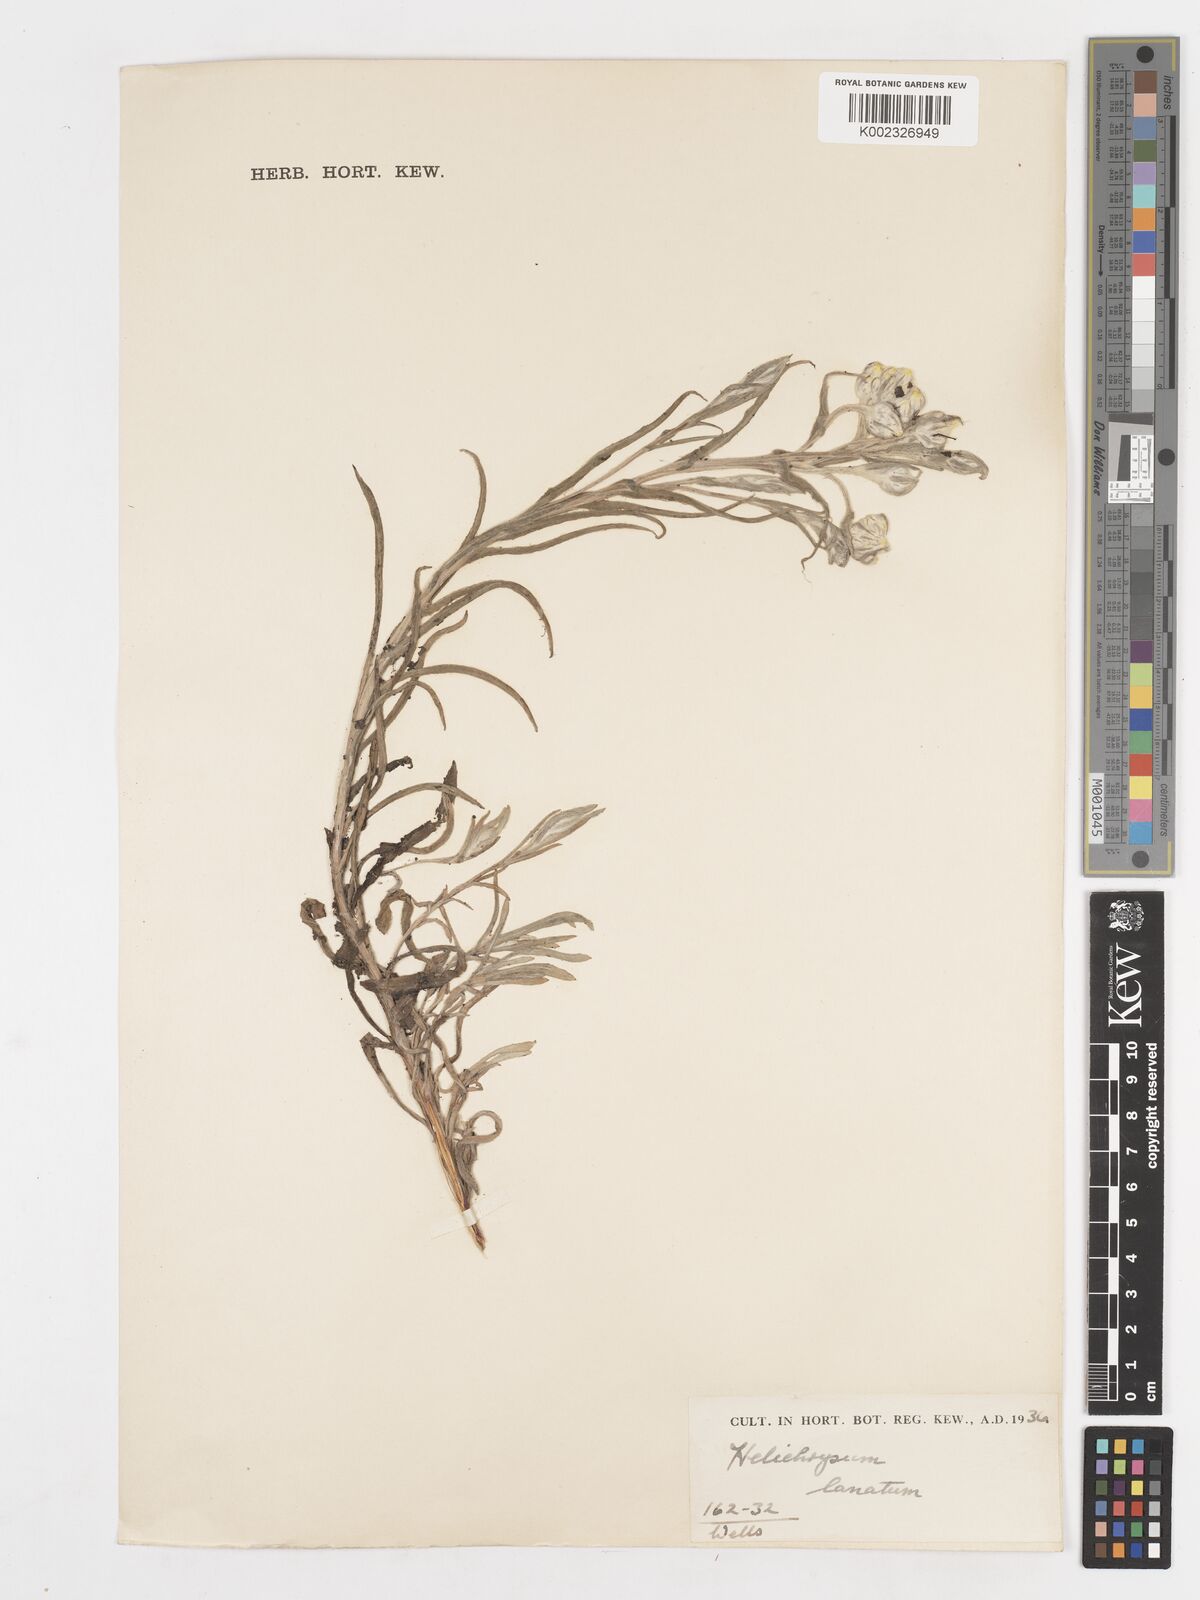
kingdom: Plantae
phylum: Tracheophyta
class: Magnoliopsida
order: Asterales
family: Asteraceae
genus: Helichrysum
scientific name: Helichrysum
